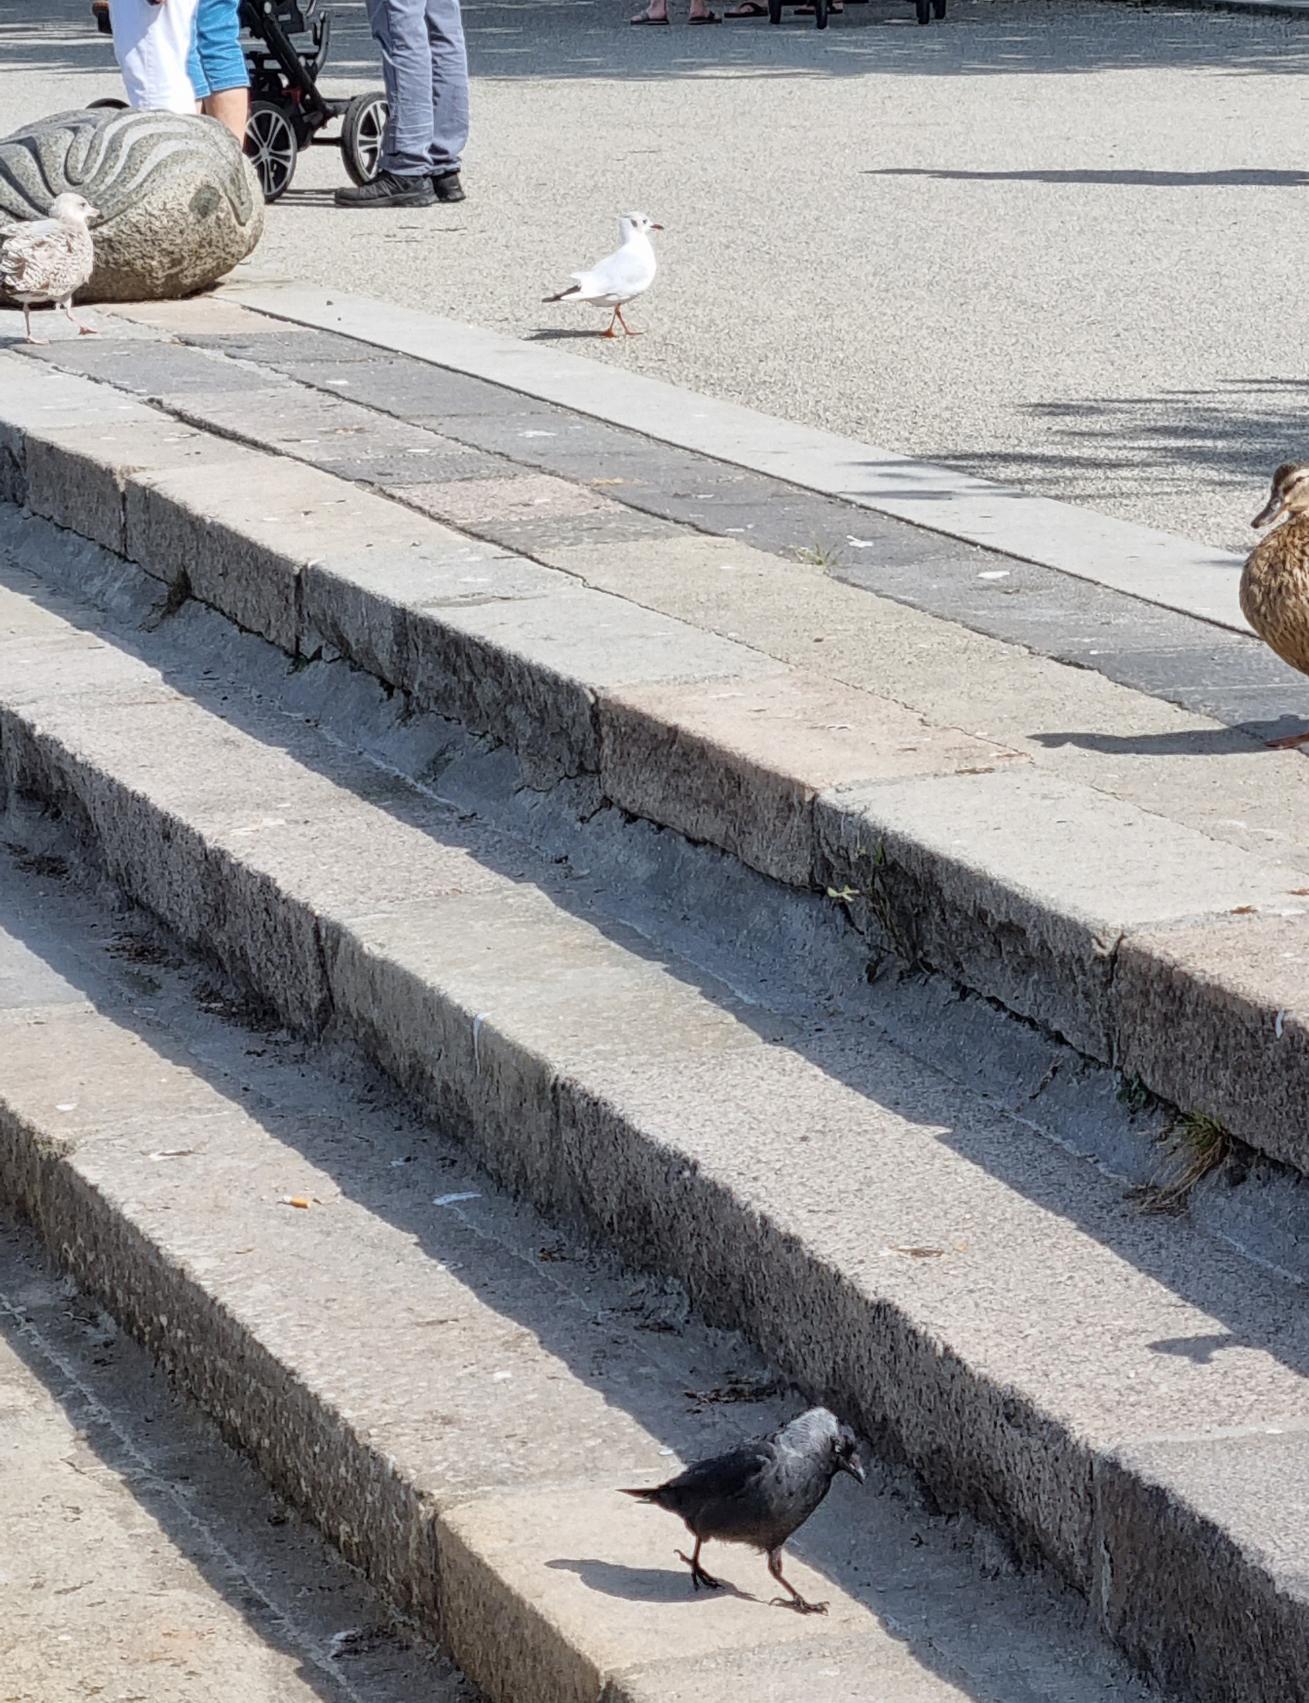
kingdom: Animalia
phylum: Chordata
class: Aves
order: Charadriiformes
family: Laridae
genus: Chroicocephalus
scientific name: Chroicocephalus ridibundus
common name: Hættemåge
